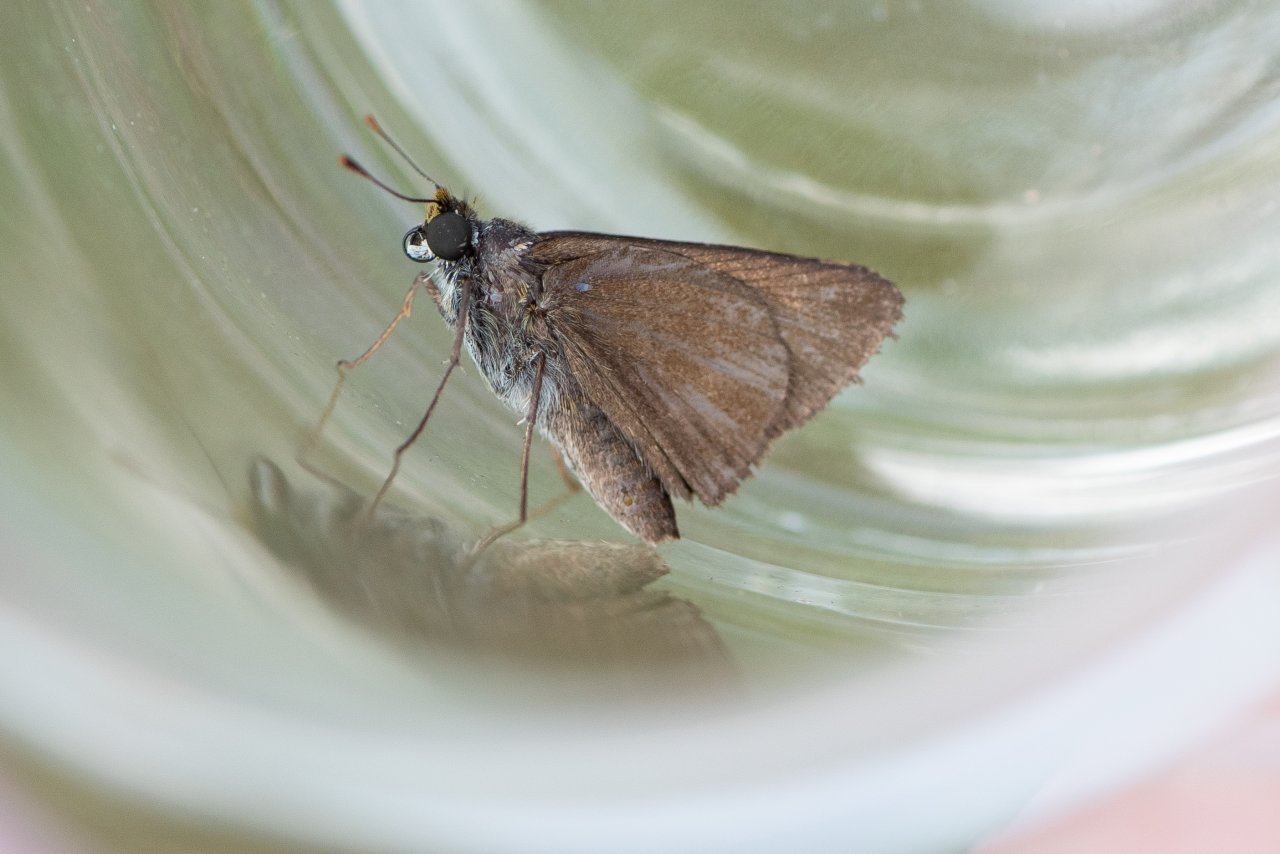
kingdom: Animalia
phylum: Arthropoda
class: Insecta
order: Lepidoptera
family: Hesperiidae
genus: Euphyes
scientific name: Euphyes vestris
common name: Dun Skipper
